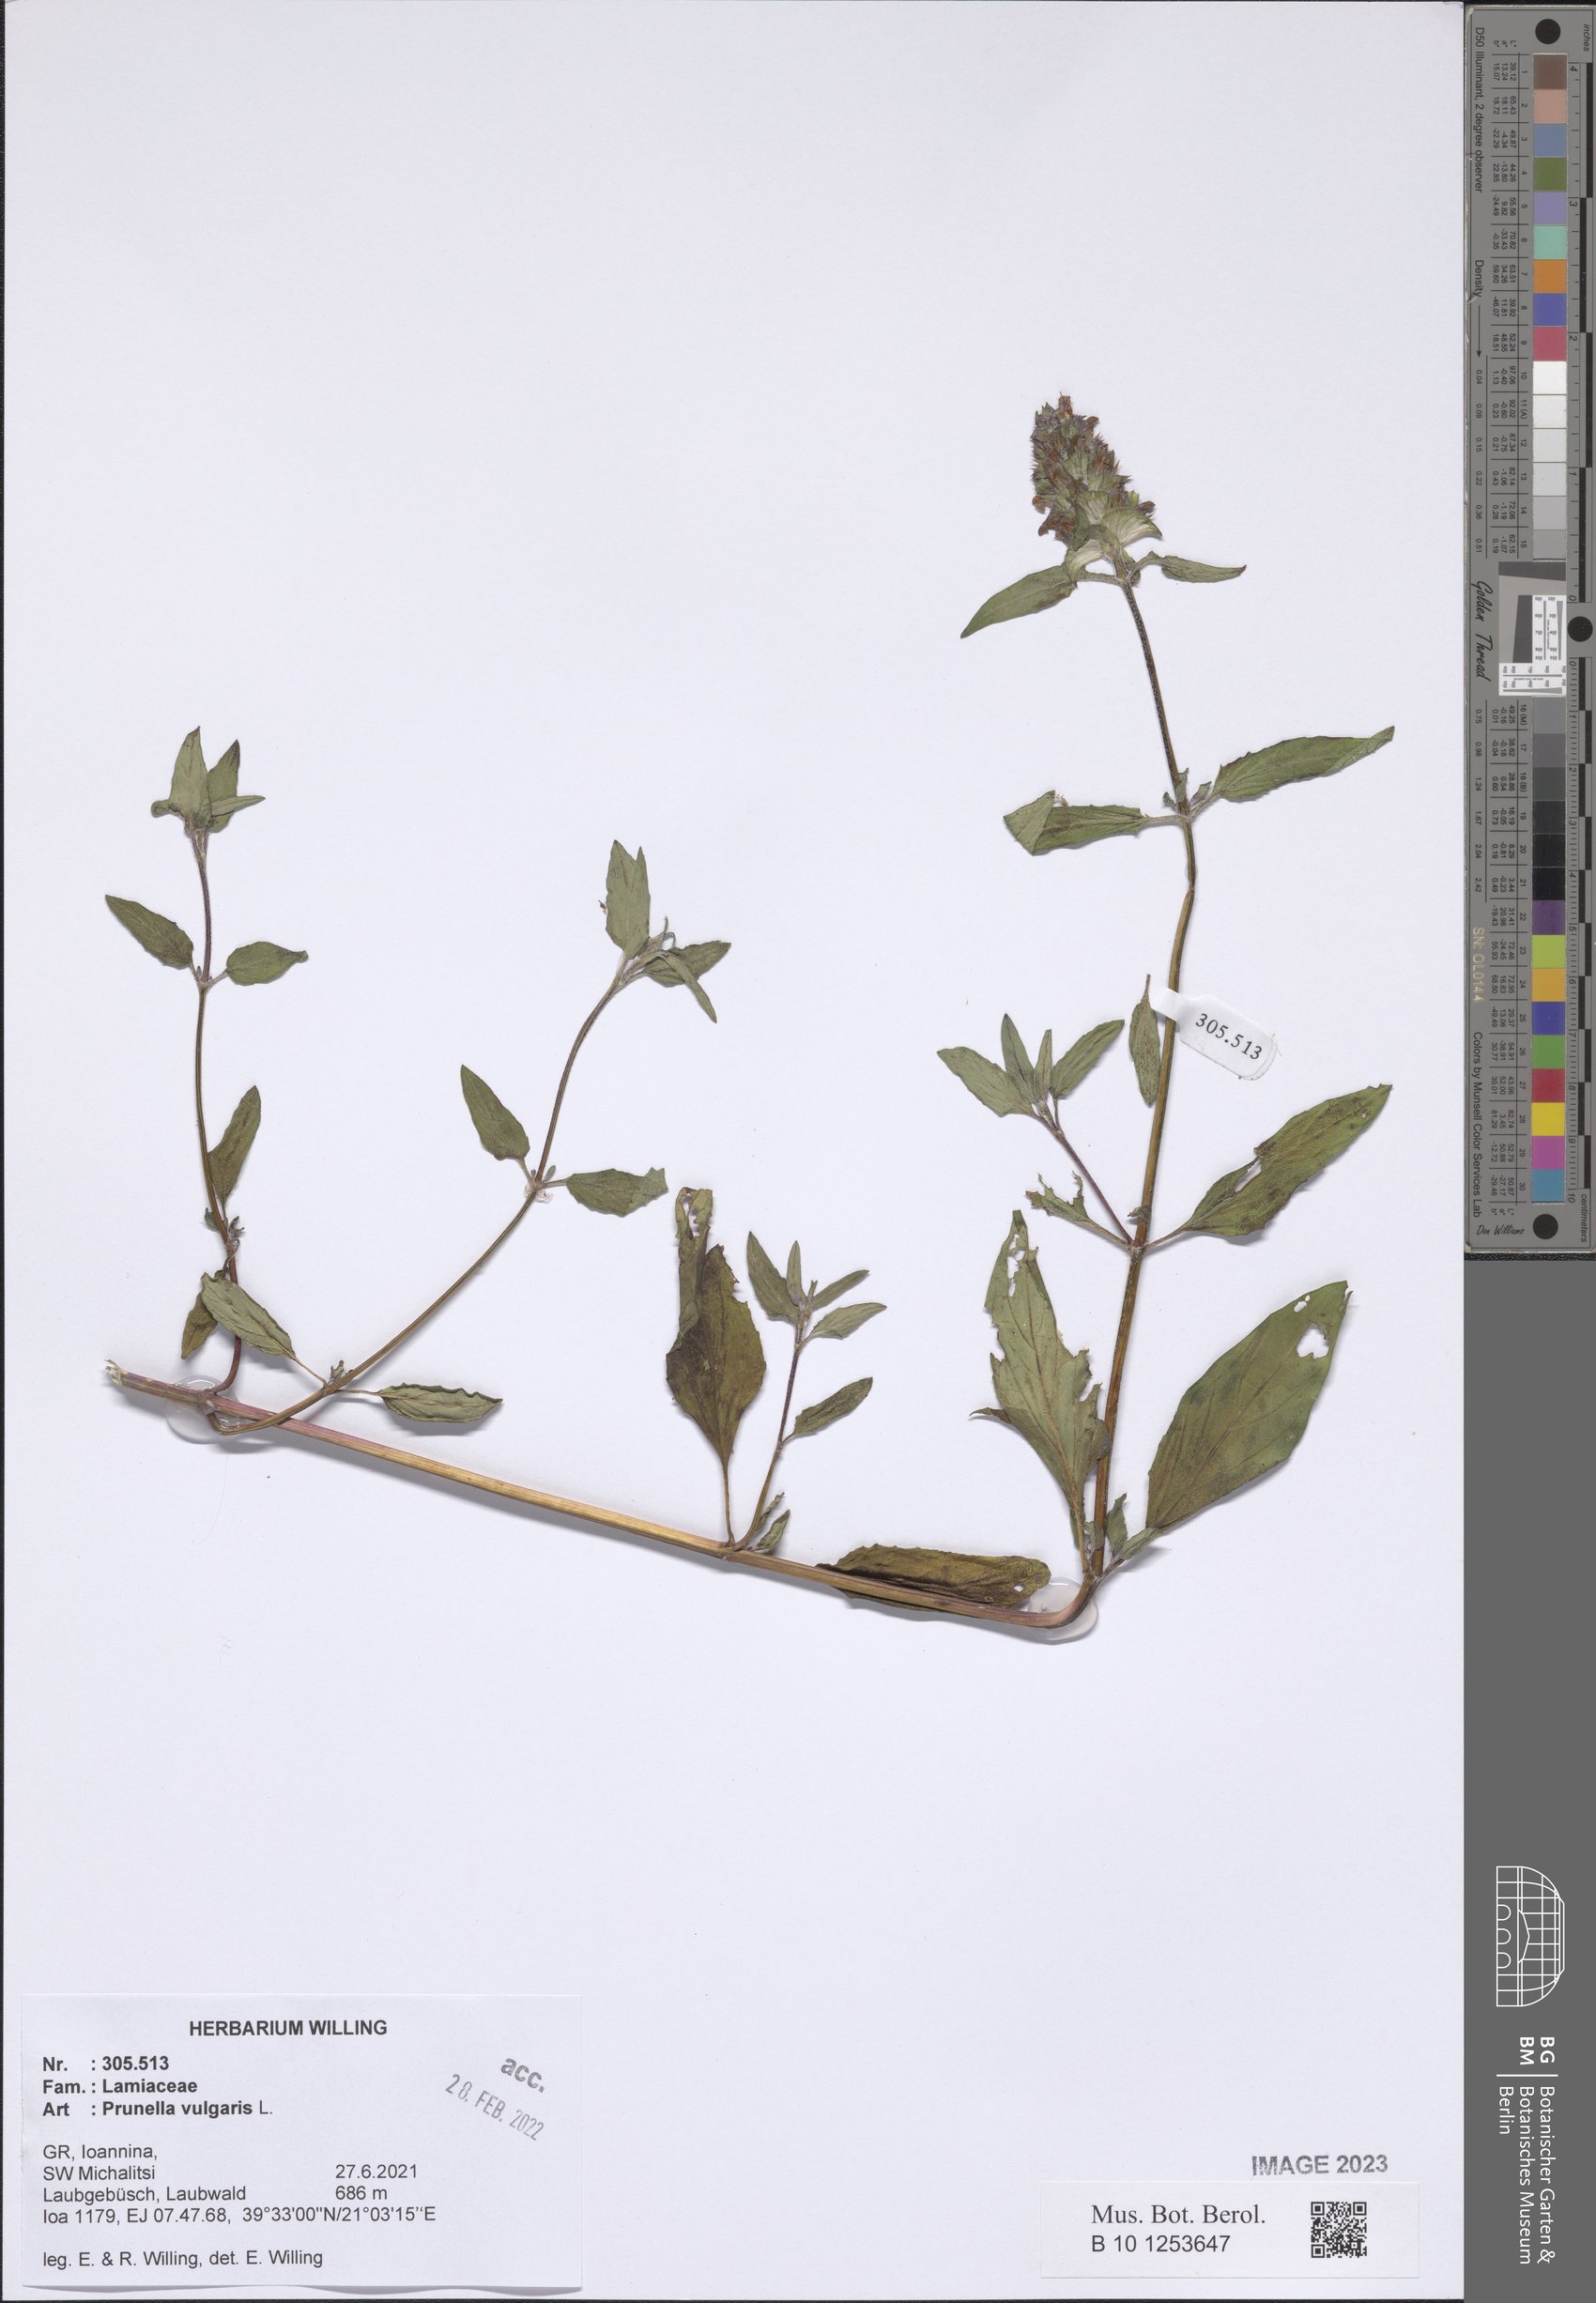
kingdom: Plantae
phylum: Tracheophyta
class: Magnoliopsida
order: Lamiales
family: Lamiaceae
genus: Prunella
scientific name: Prunella vulgaris
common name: Heal-all
